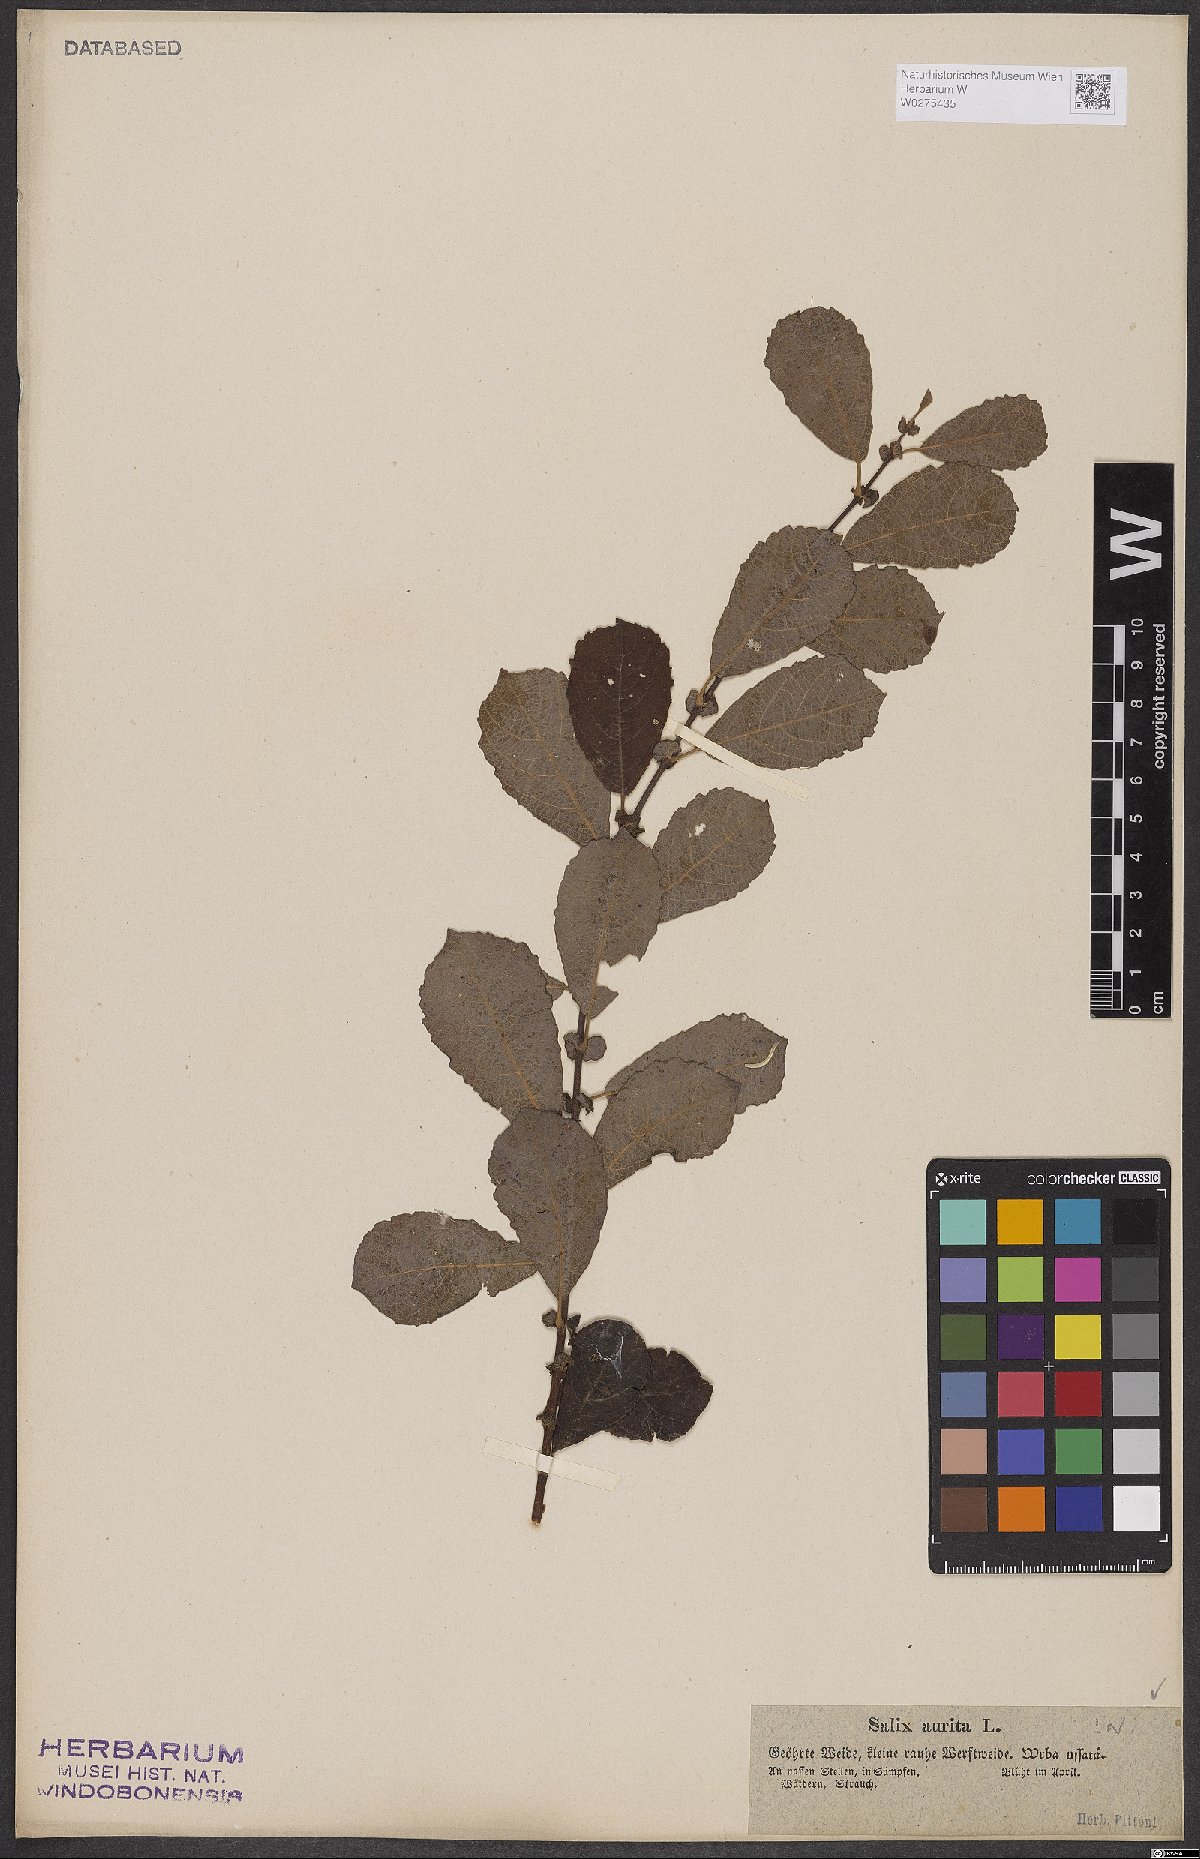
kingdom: Plantae
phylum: Tracheophyta
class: Magnoliopsida
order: Malpighiales
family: Salicaceae
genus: Salix
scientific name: Salix aurita
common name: Eared willow
